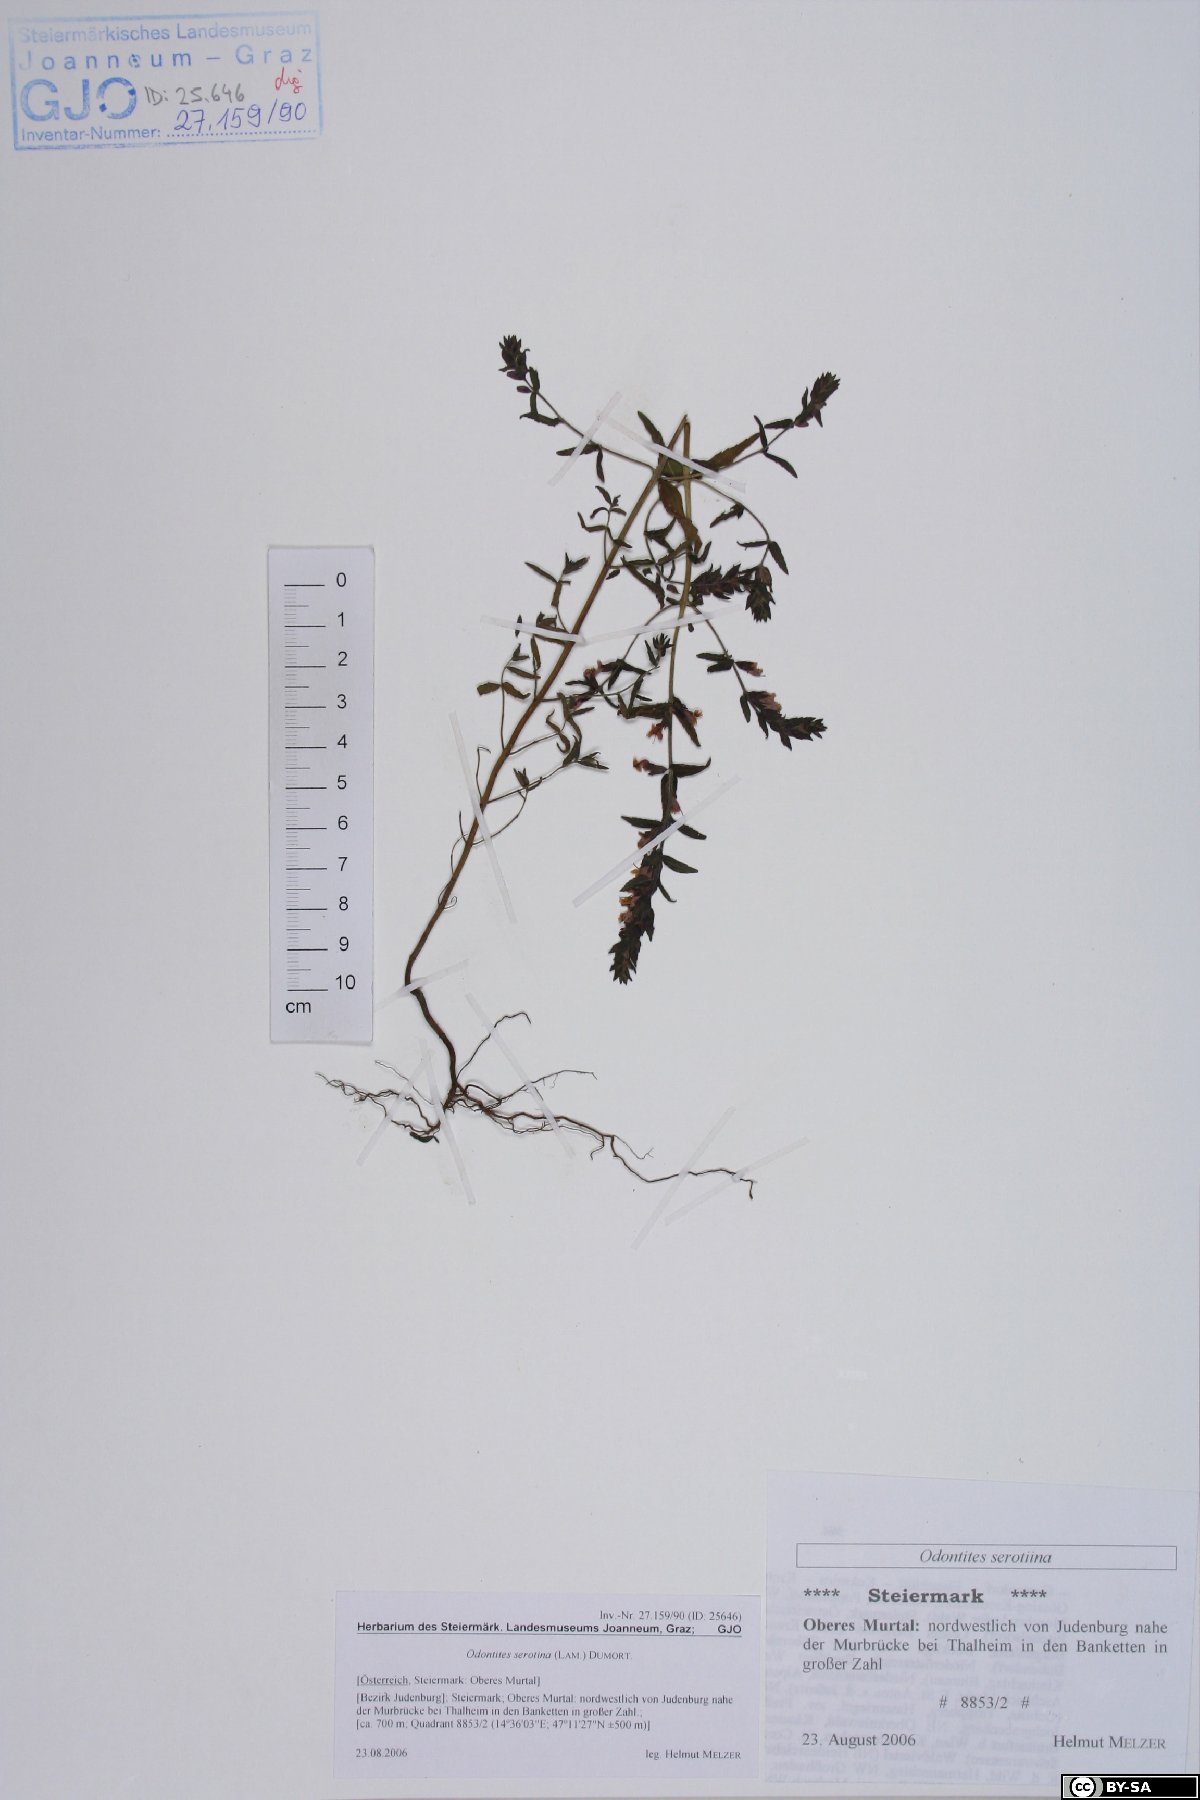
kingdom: Plantae
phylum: Tracheophyta
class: Magnoliopsida
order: Lamiales
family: Orobanchaceae
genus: Odontites
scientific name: Odontites vulgaris
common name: Broomrape
